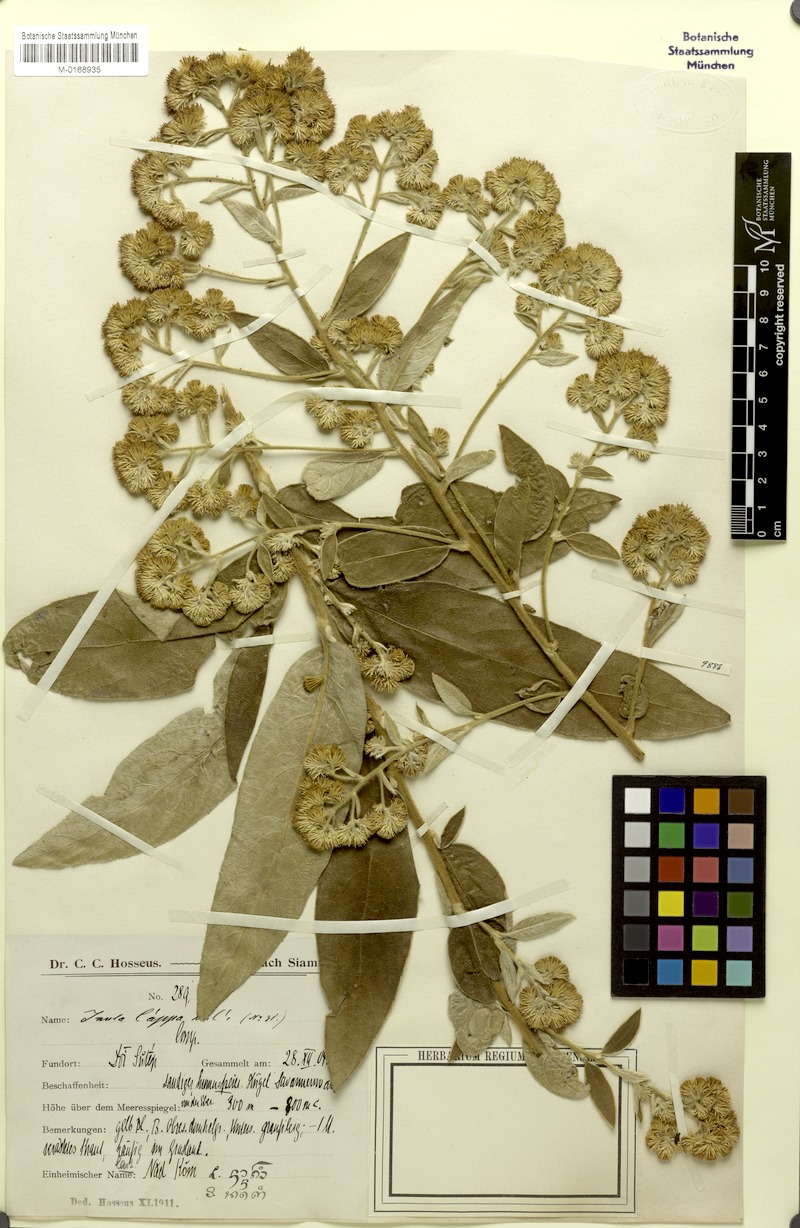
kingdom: Plantae
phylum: Tracheophyta
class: Magnoliopsida
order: Asterales
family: Asteraceae
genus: Duhaldea
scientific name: Duhaldea cappa
